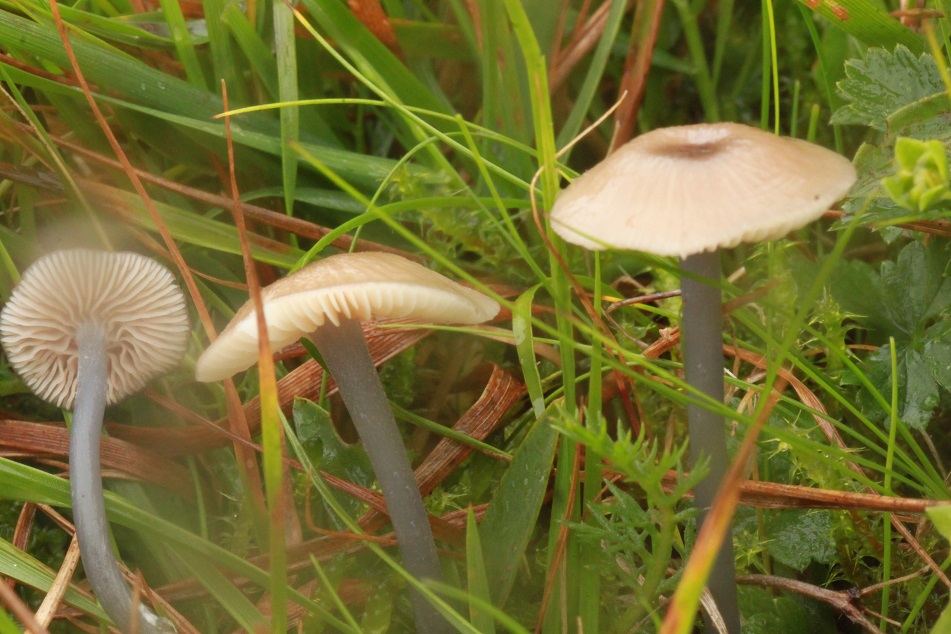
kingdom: Fungi
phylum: Basidiomycota
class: Agaricomycetes
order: Agaricales
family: Entolomataceae
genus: Entoloma
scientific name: Entoloma exile
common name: rødplettet rødblad
